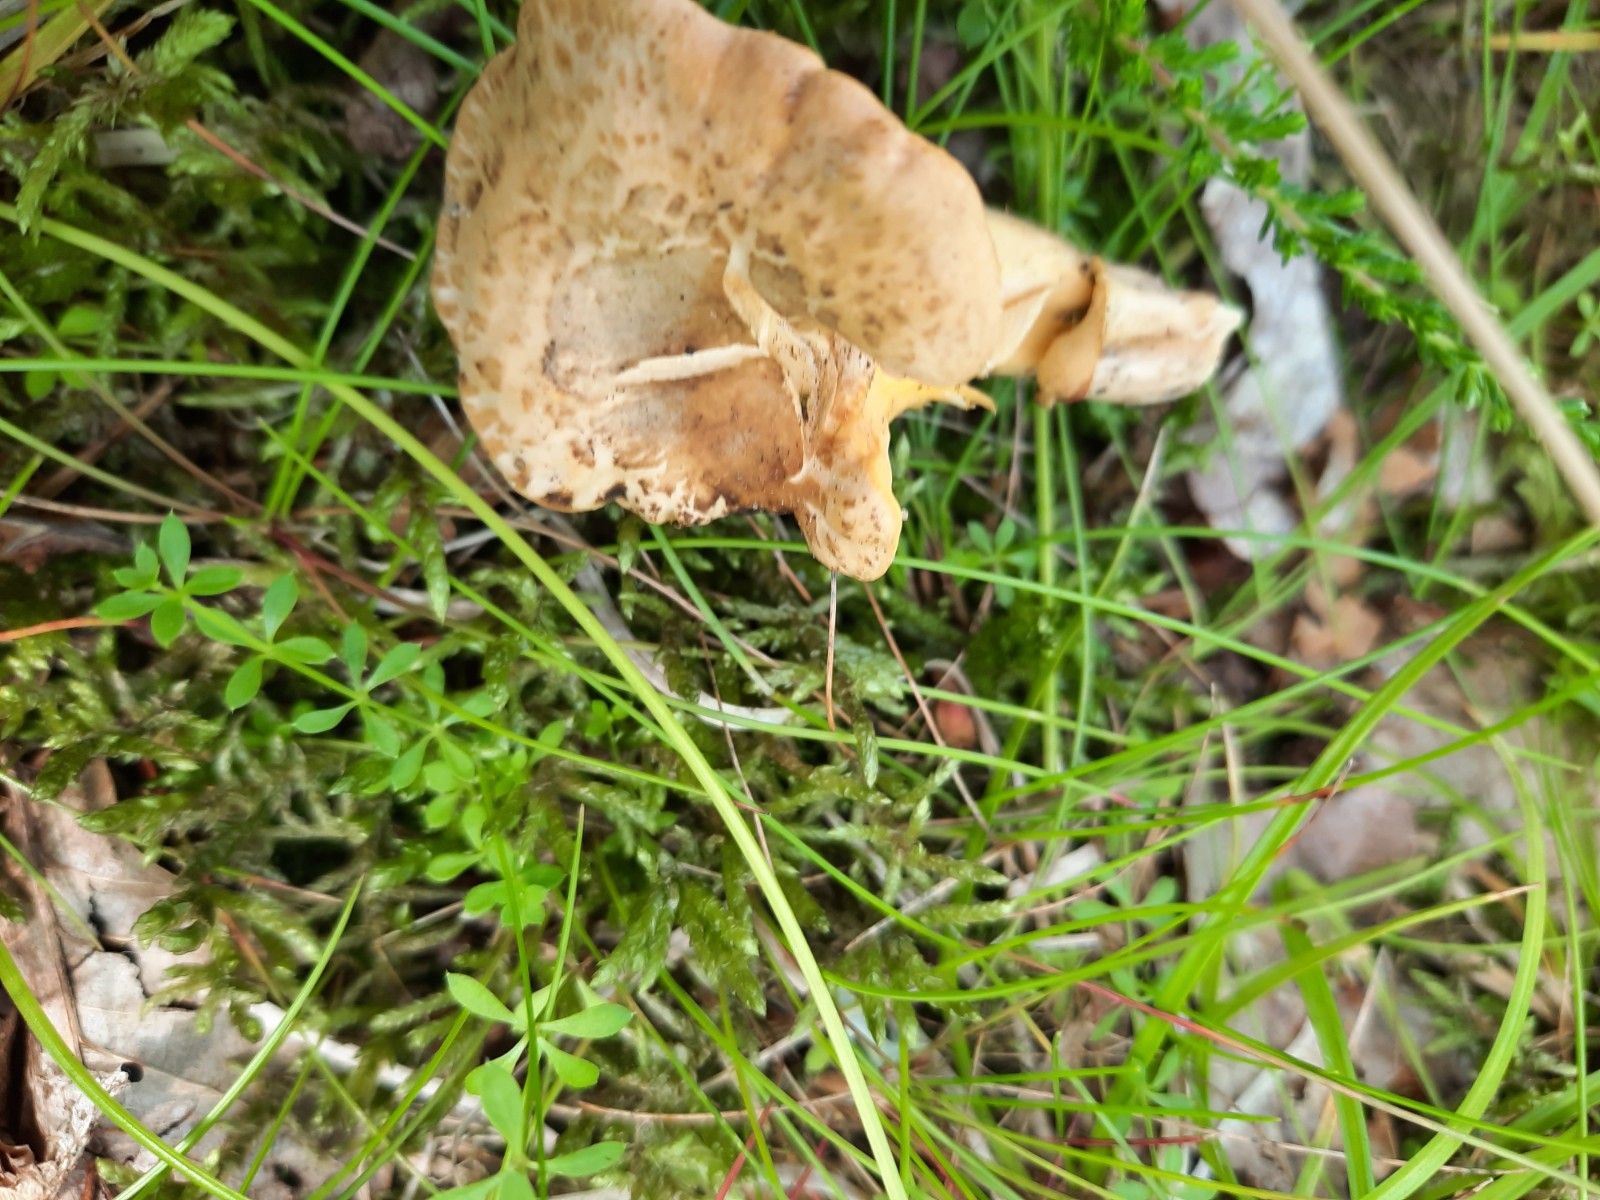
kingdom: Fungi
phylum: Basidiomycota
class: Agaricomycetes
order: Cantharellales
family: Hydnaceae
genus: Cantharellus
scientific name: Cantharellus amethysteus
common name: ametyst-kantarel
